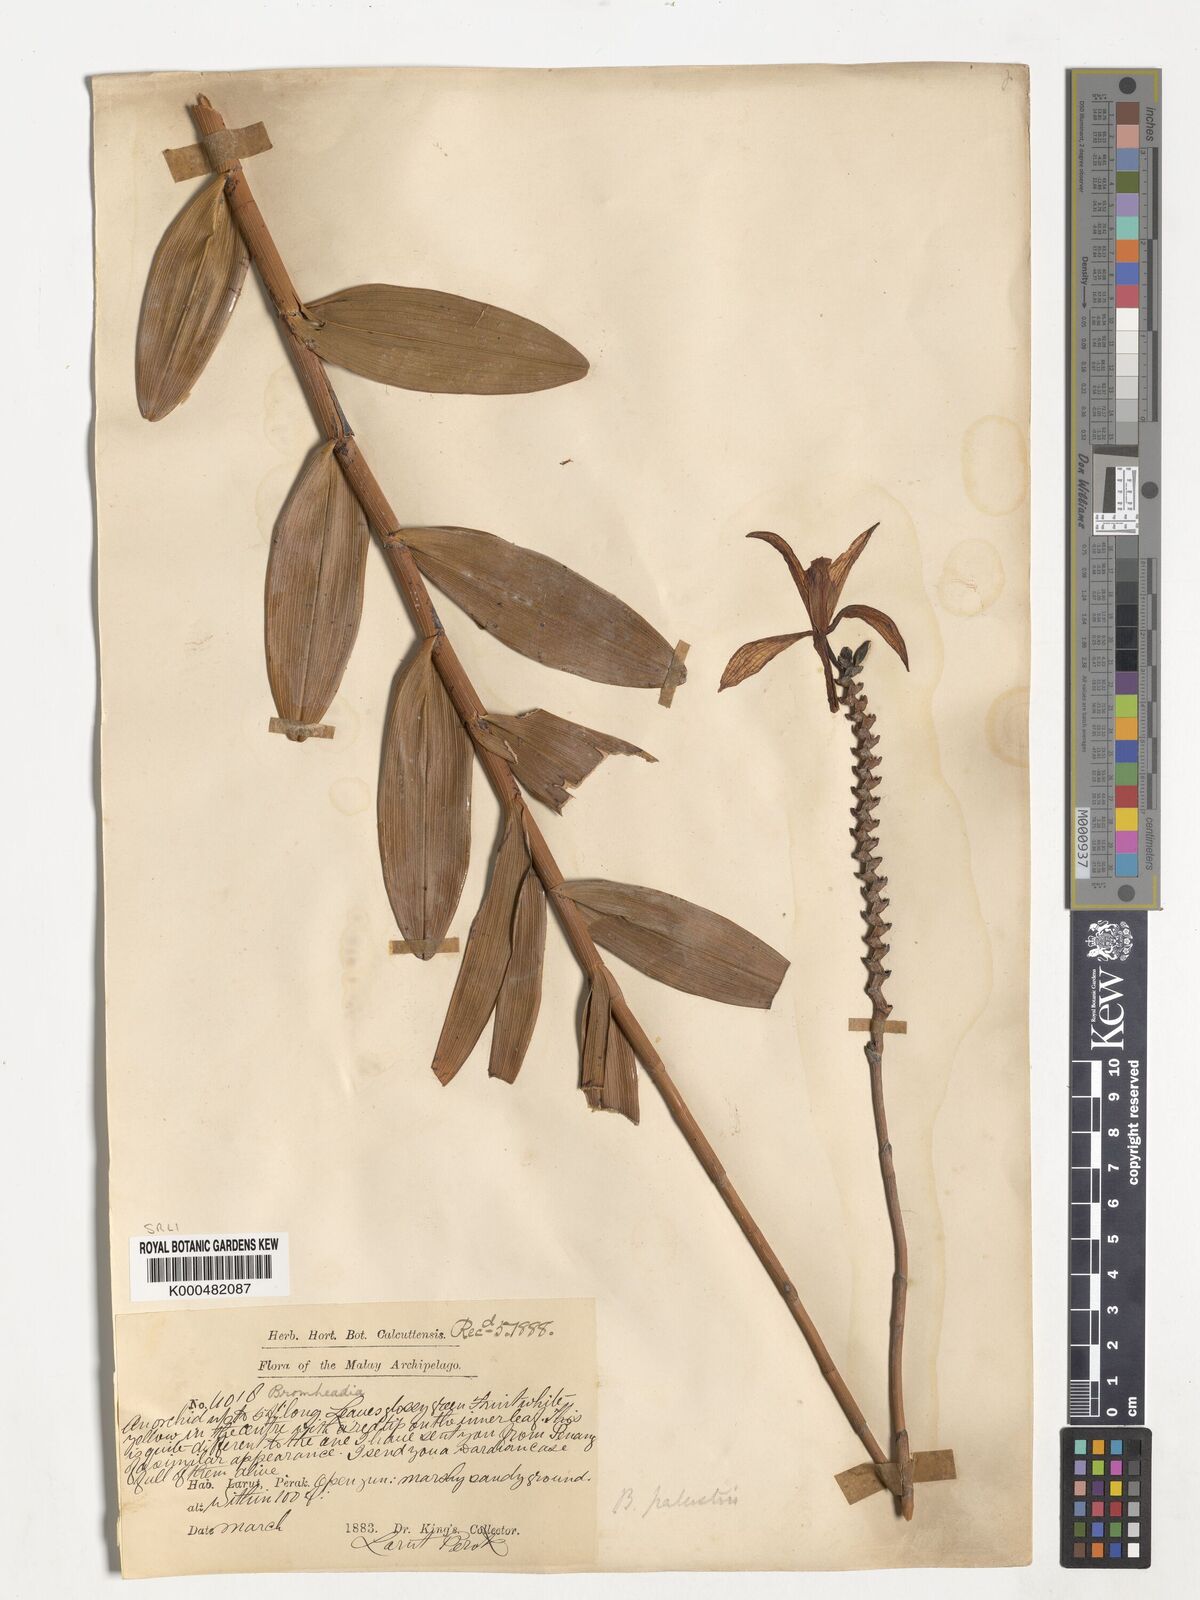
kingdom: Plantae
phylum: Tracheophyta
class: Liliopsida
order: Asparagales
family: Orchidaceae
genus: Bromheadia
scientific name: Bromheadia finlaysoniana
